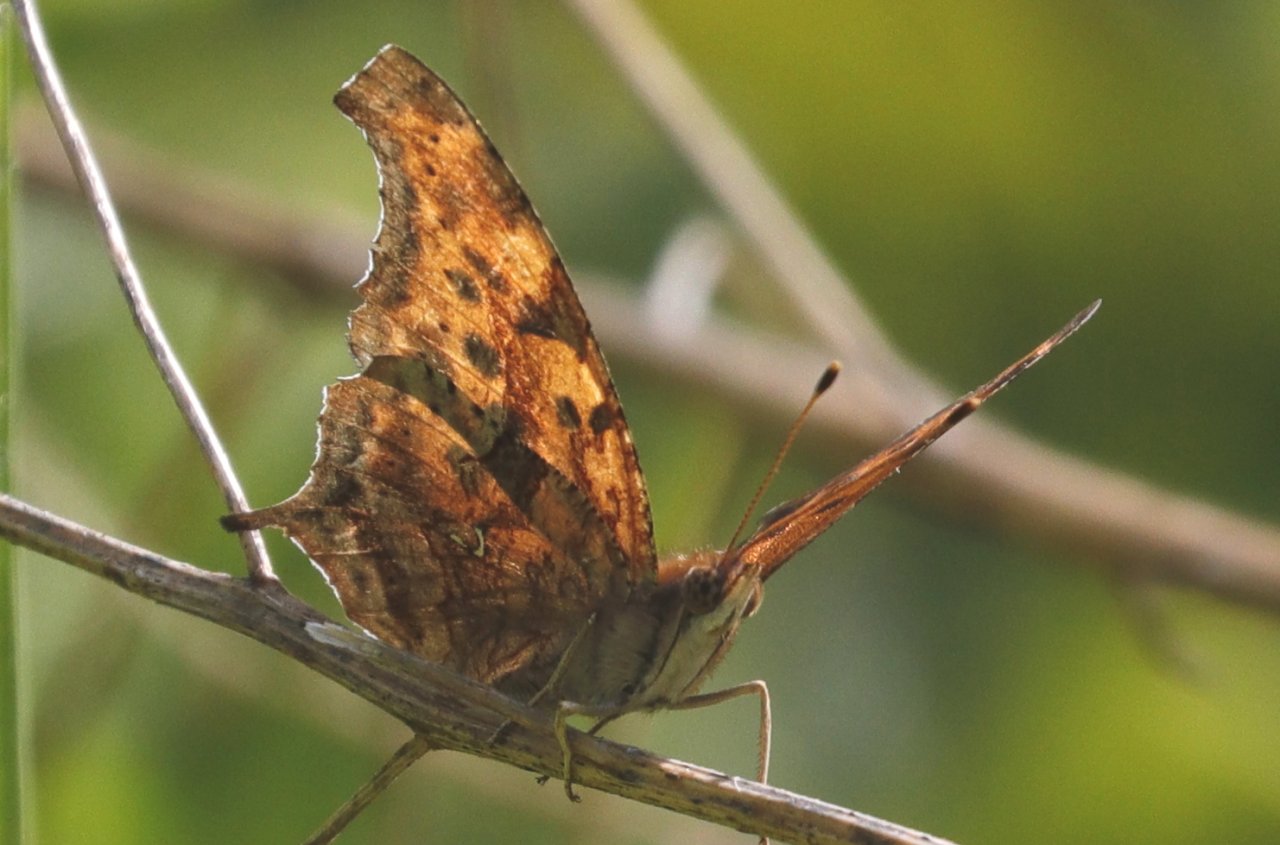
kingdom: Animalia
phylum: Arthropoda
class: Insecta
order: Lepidoptera
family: Nymphalidae
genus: Polygonia
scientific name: Polygonia interrogationis
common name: Question Mark
